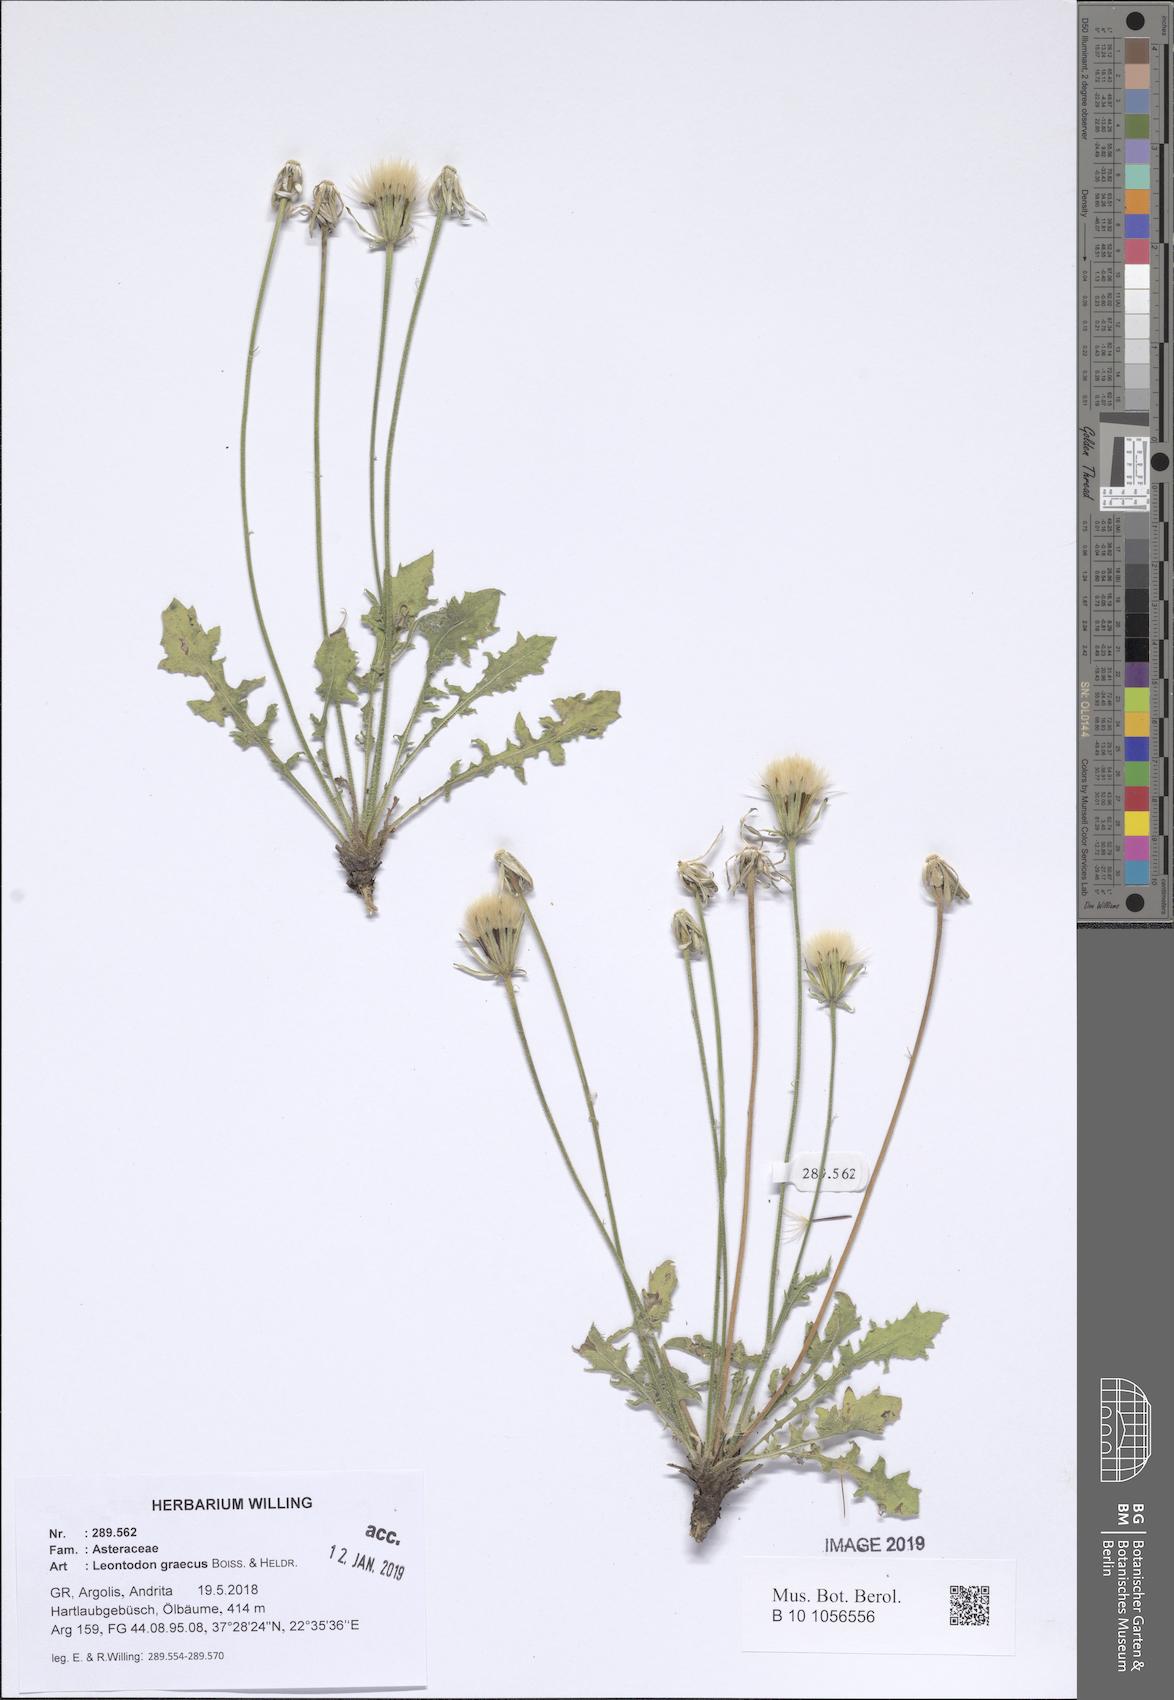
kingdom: Plantae
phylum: Tracheophyta
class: Magnoliopsida
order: Asterales
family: Asteraceae
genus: Leontodon
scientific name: Leontodon graecus
